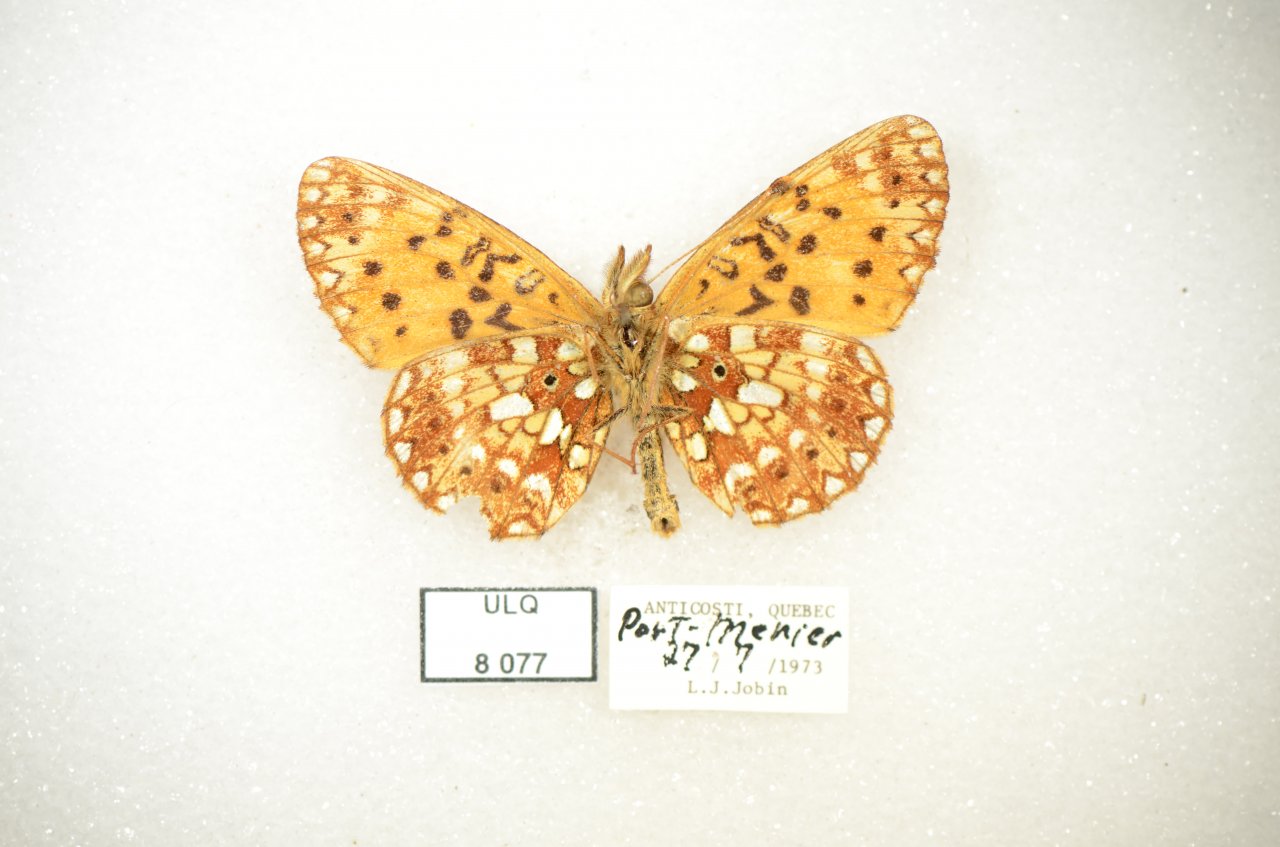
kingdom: Animalia
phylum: Arthropoda
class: Insecta
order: Lepidoptera
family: Nymphalidae
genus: Boloria
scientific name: Boloria selene
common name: Silver-bordered Fritillary
